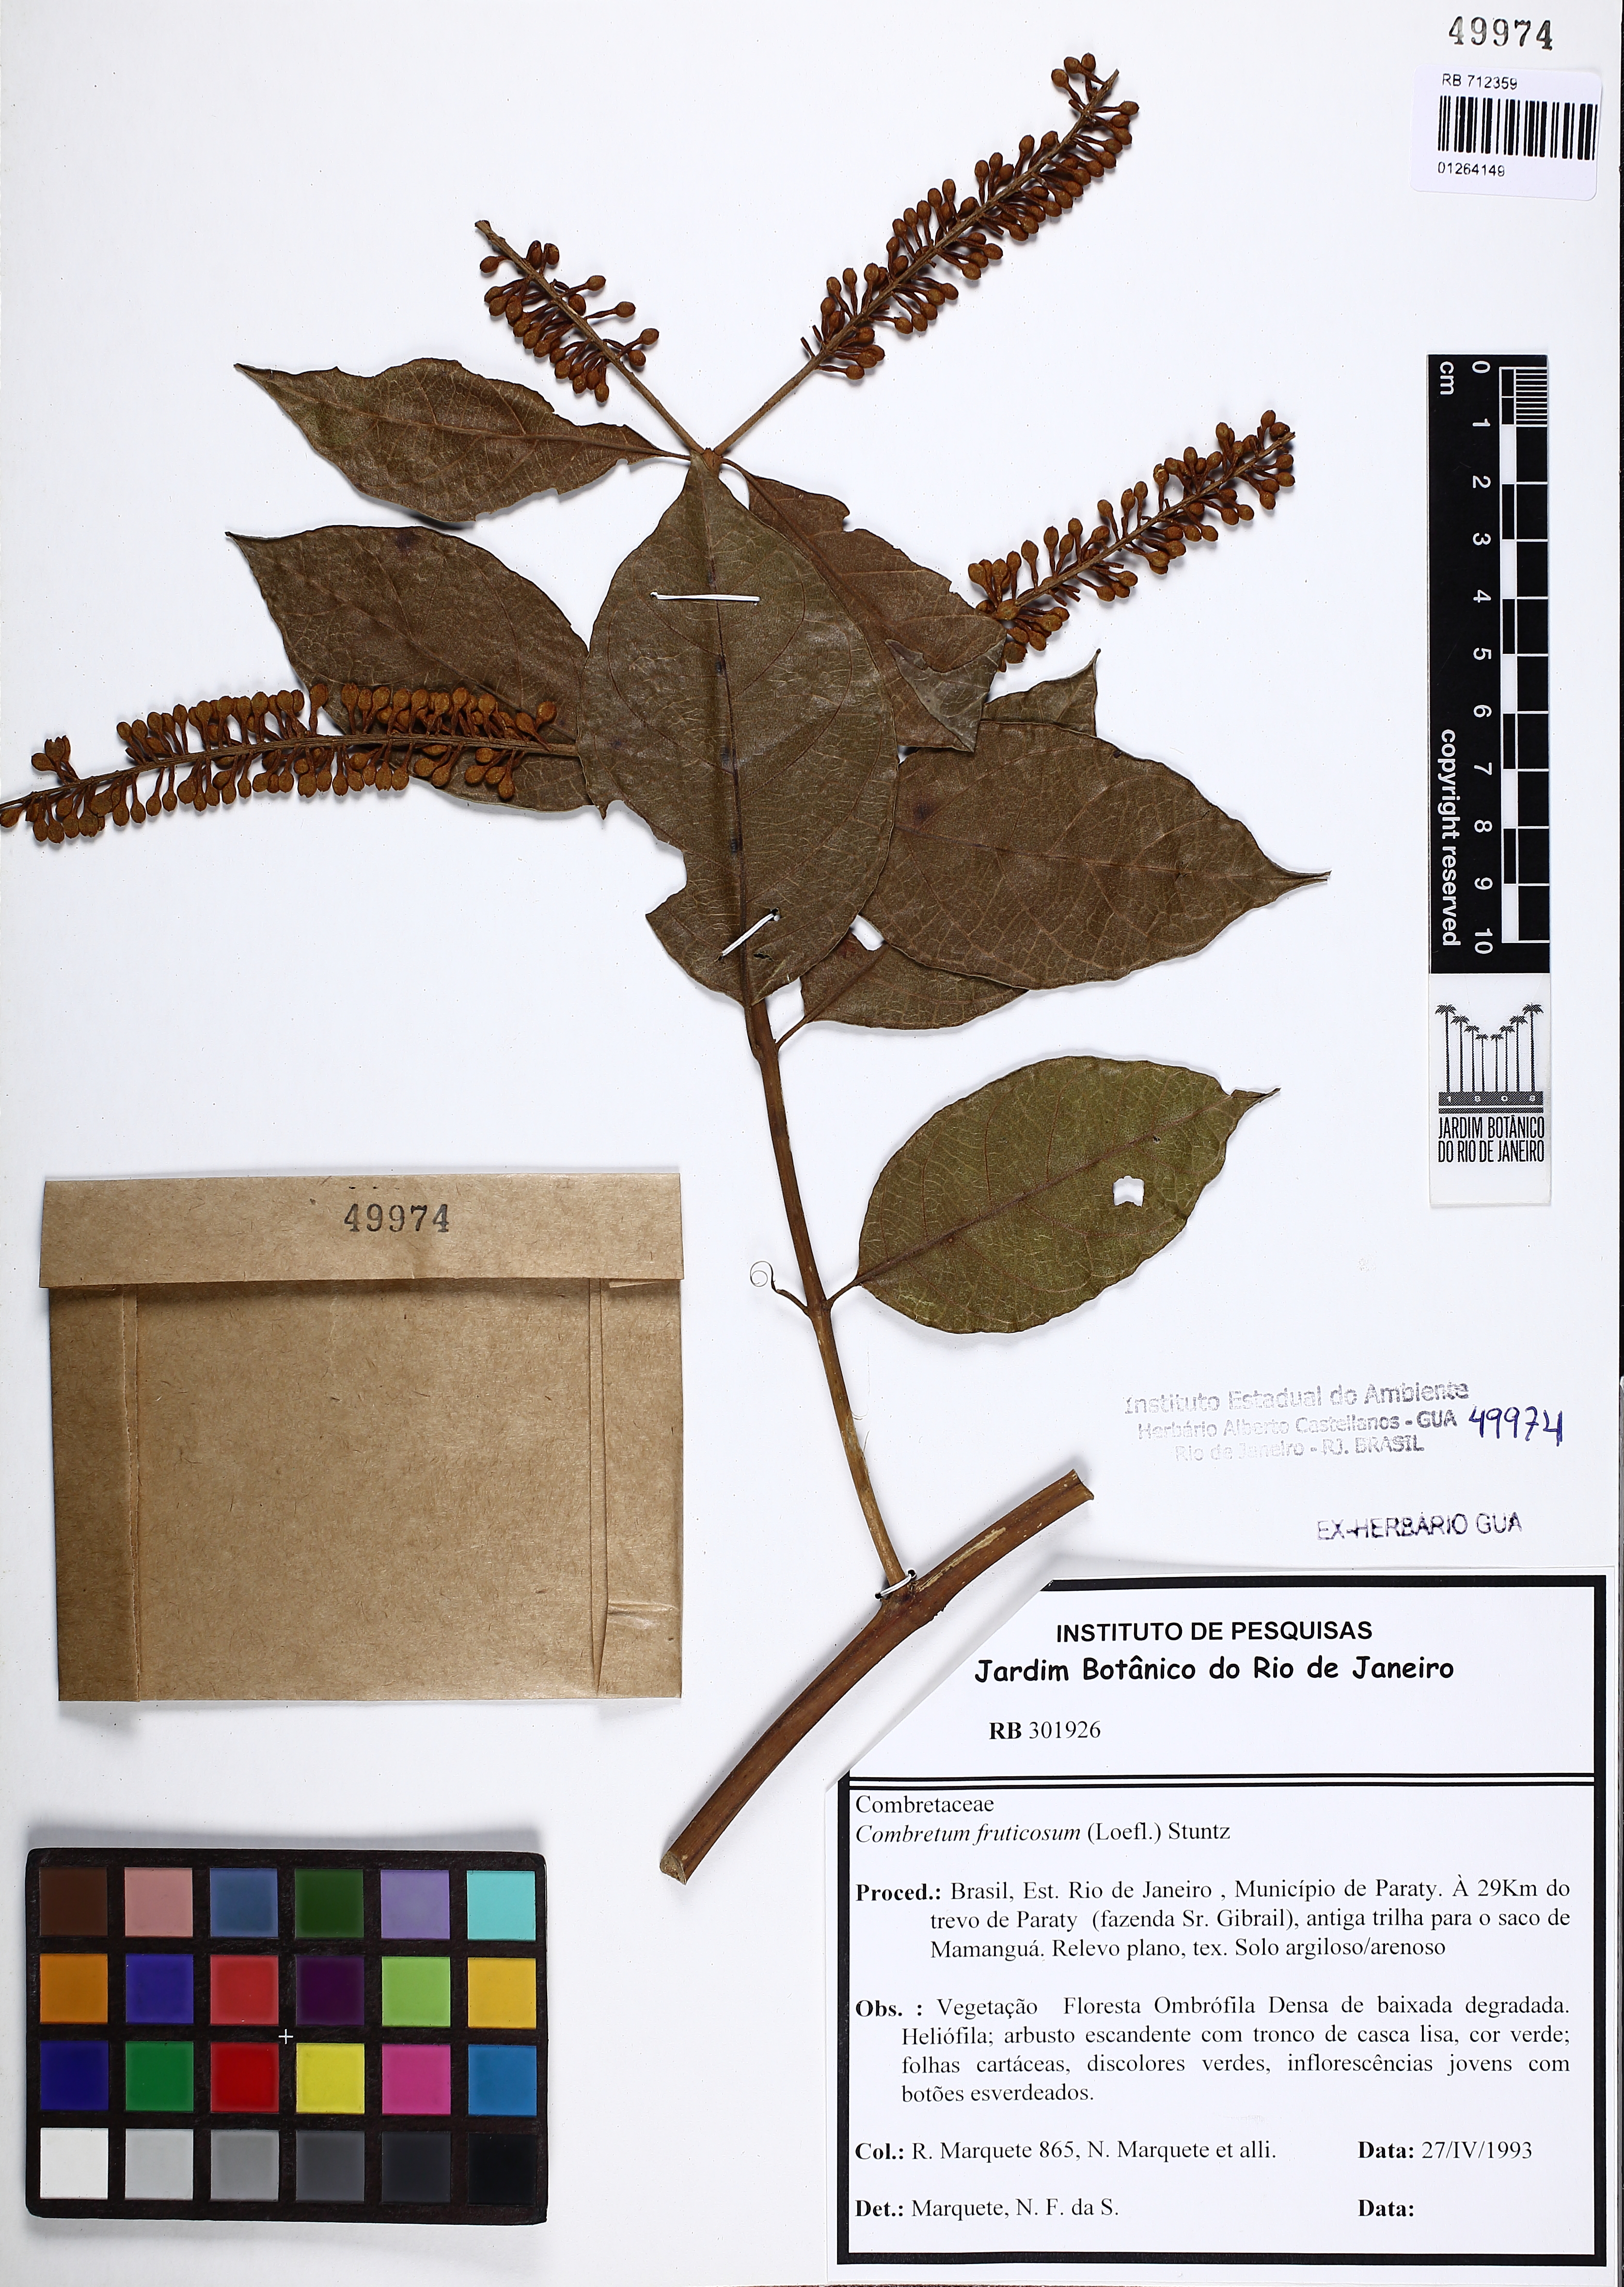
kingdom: Plantae
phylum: Tracheophyta
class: Magnoliopsida
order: Myrtales
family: Combretaceae
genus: Combretum
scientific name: Combretum fruticosum
